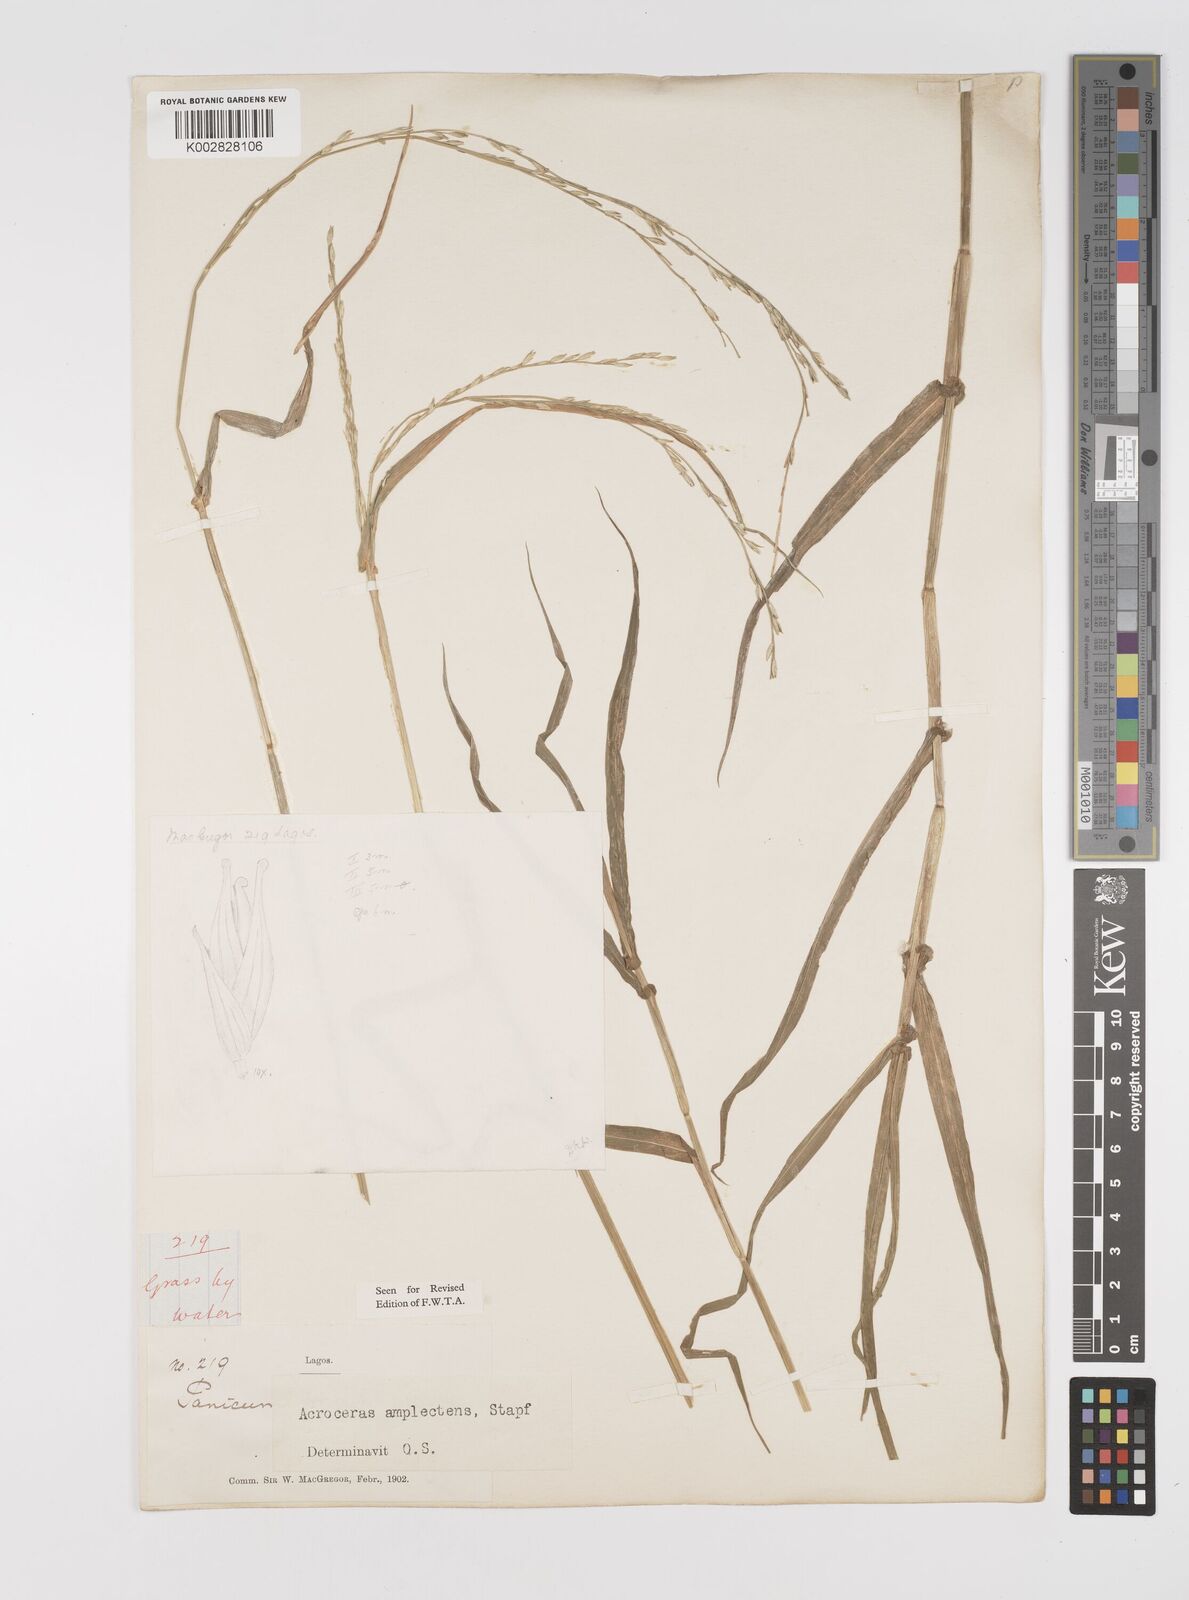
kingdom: Plantae
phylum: Tracheophyta
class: Liliopsida
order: Poales
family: Poaceae
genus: Acroceras
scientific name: Acroceras amplectens
